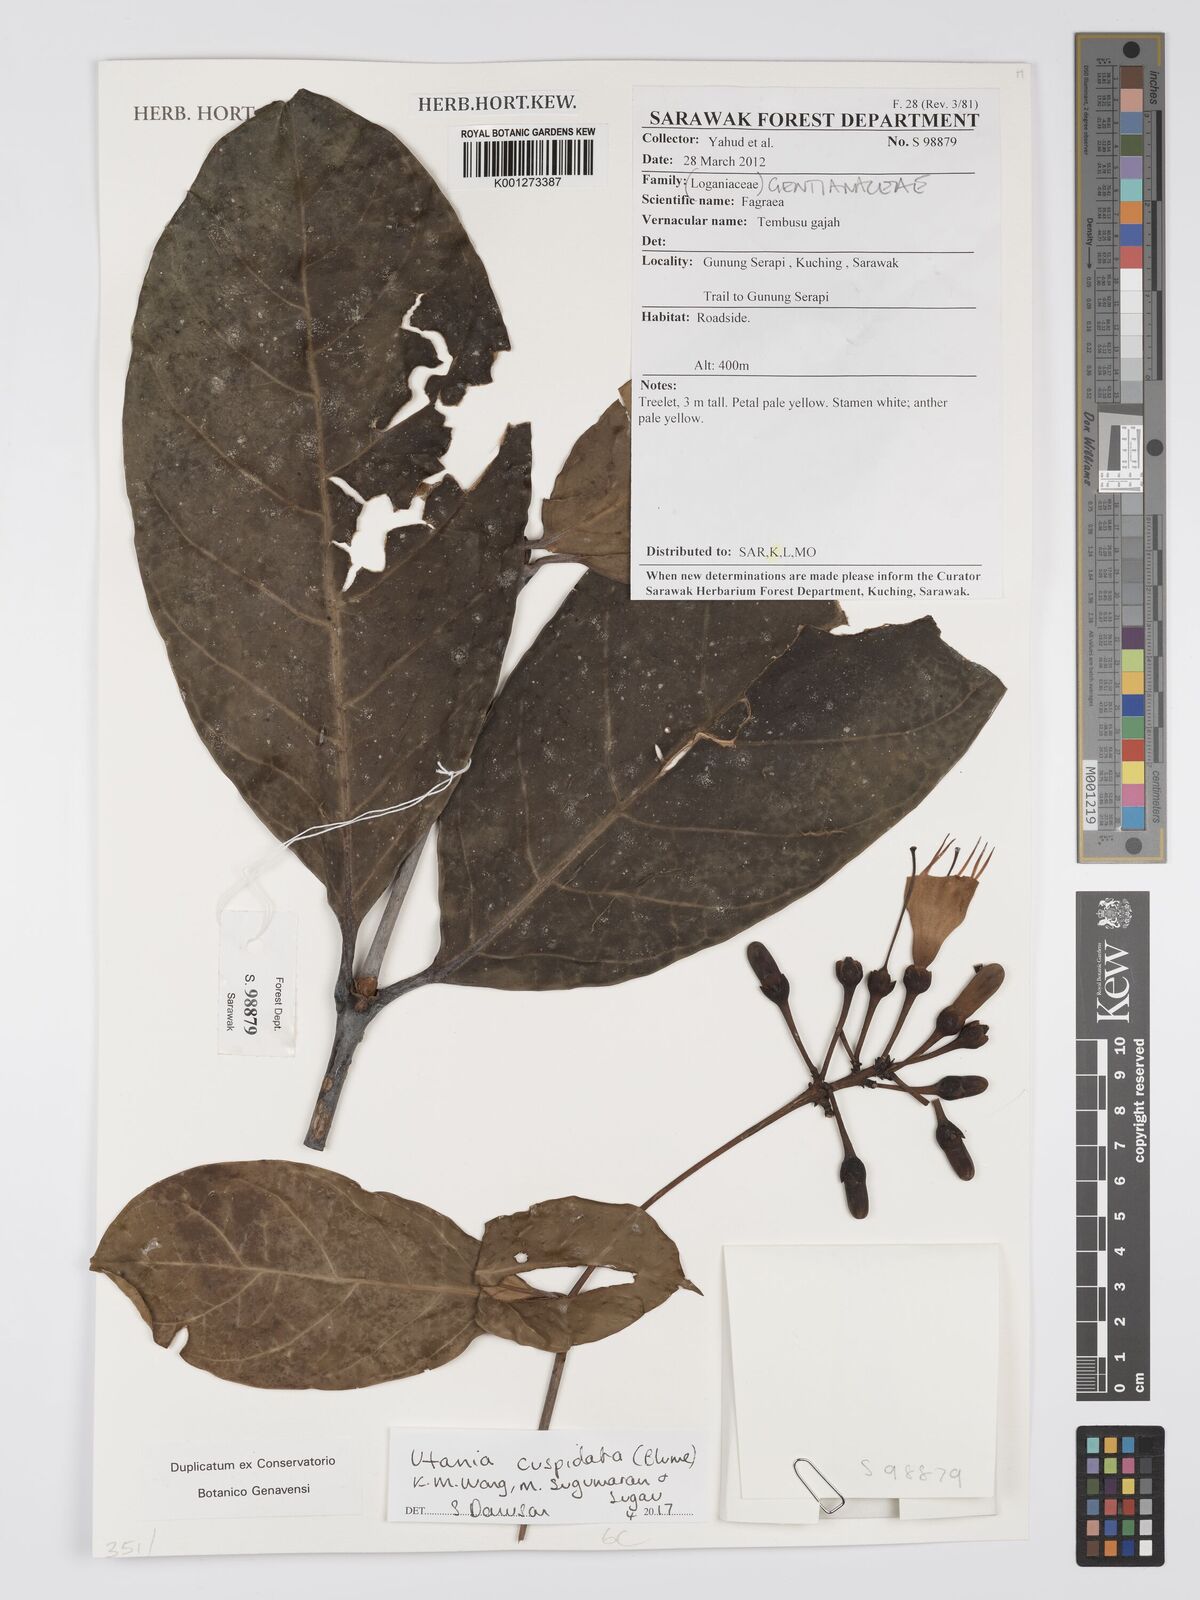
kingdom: Plantae
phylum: Tracheophyta
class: Magnoliopsida
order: Gentianales
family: Gentianaceae
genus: Utania
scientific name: Utania
